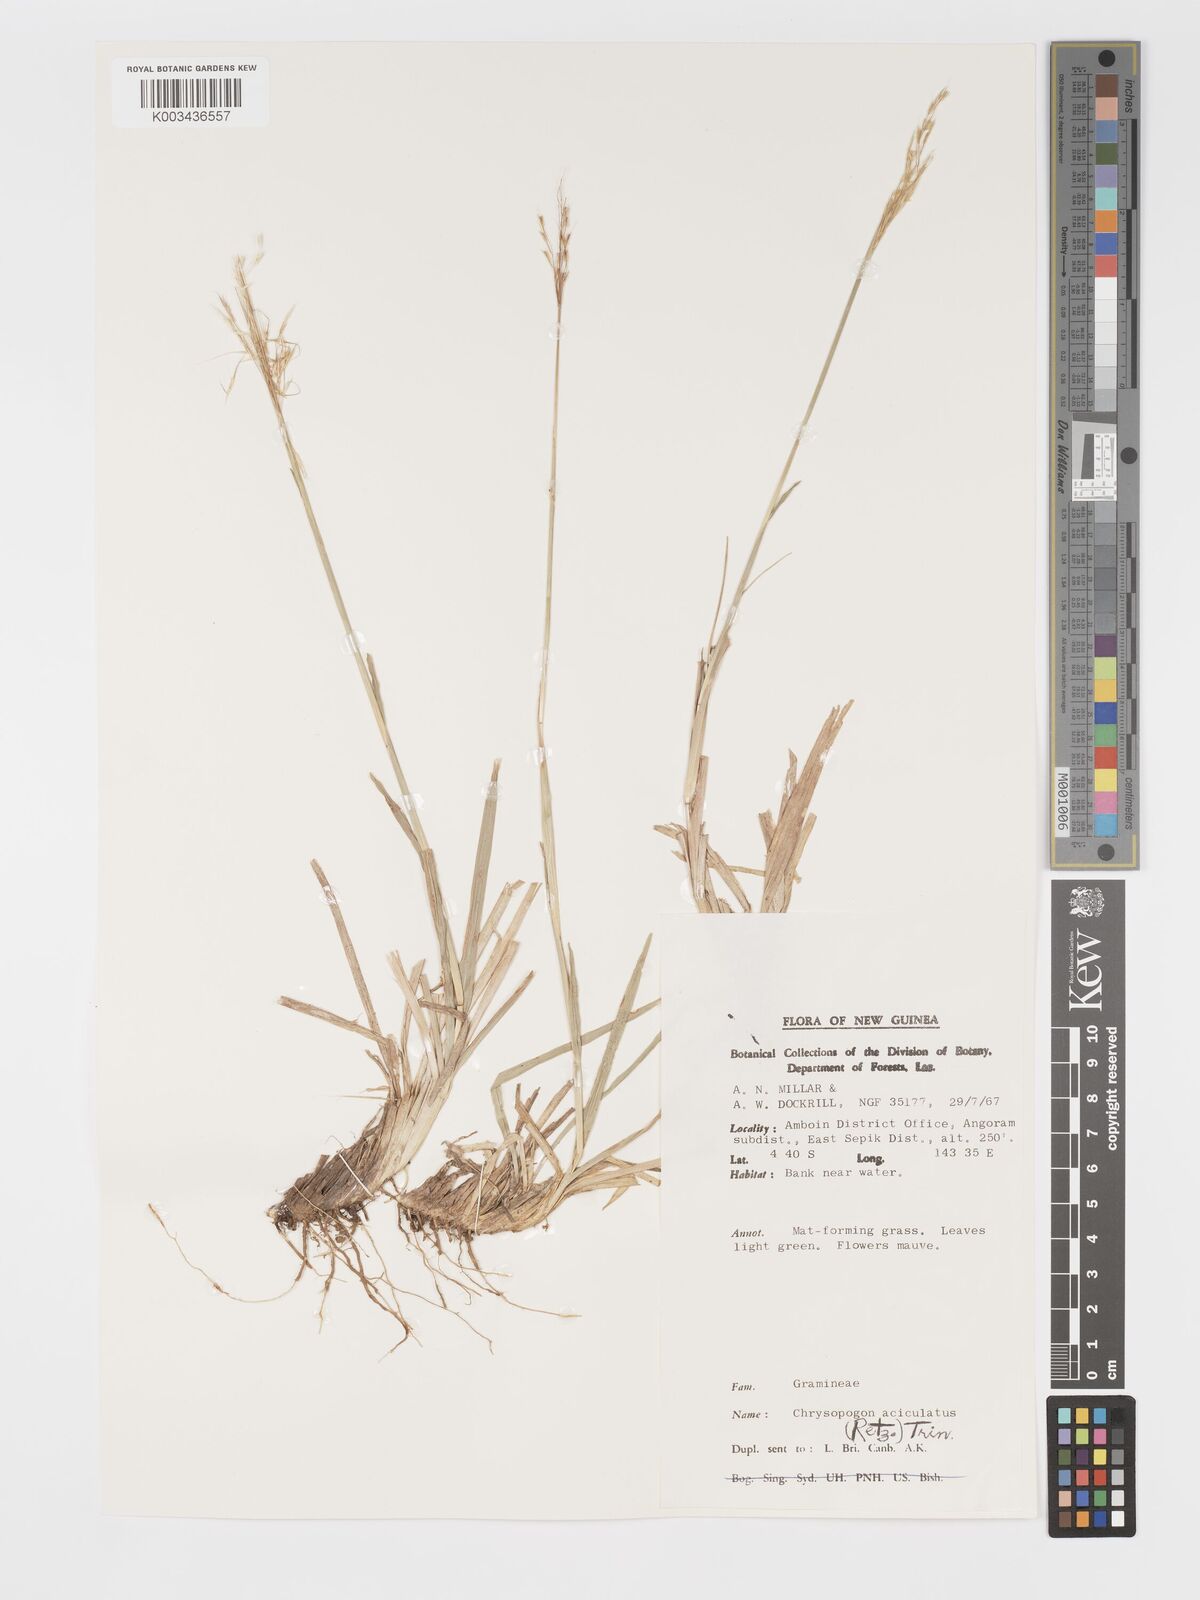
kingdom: Plantae
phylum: Tracheophyta
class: Liliopsida
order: Poales
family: Poaceae
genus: Chrysopogon
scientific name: Chrysopogon aciculatus
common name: Pilipiliula
